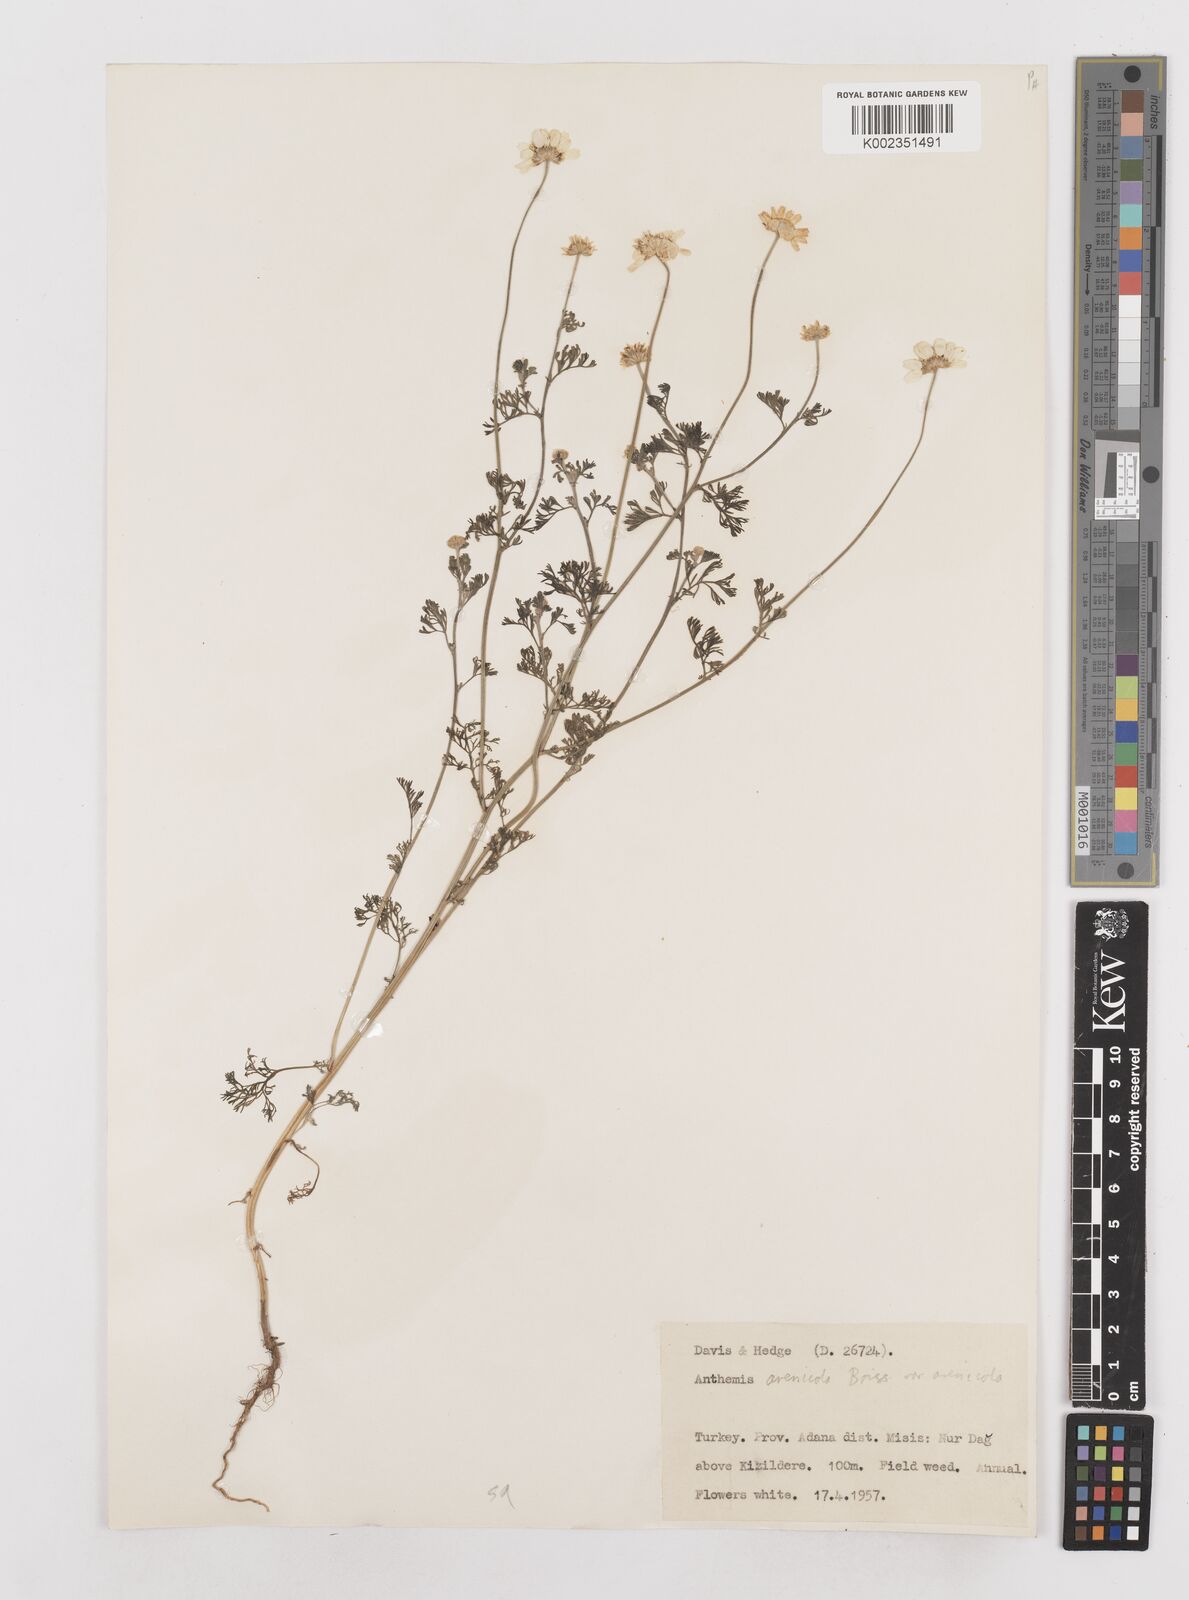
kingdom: Plantae
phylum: Tracheophyta
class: Magnoliopsida
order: Asterales
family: Asteraceae
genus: Anthemis
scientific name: Anthemis auriculata
